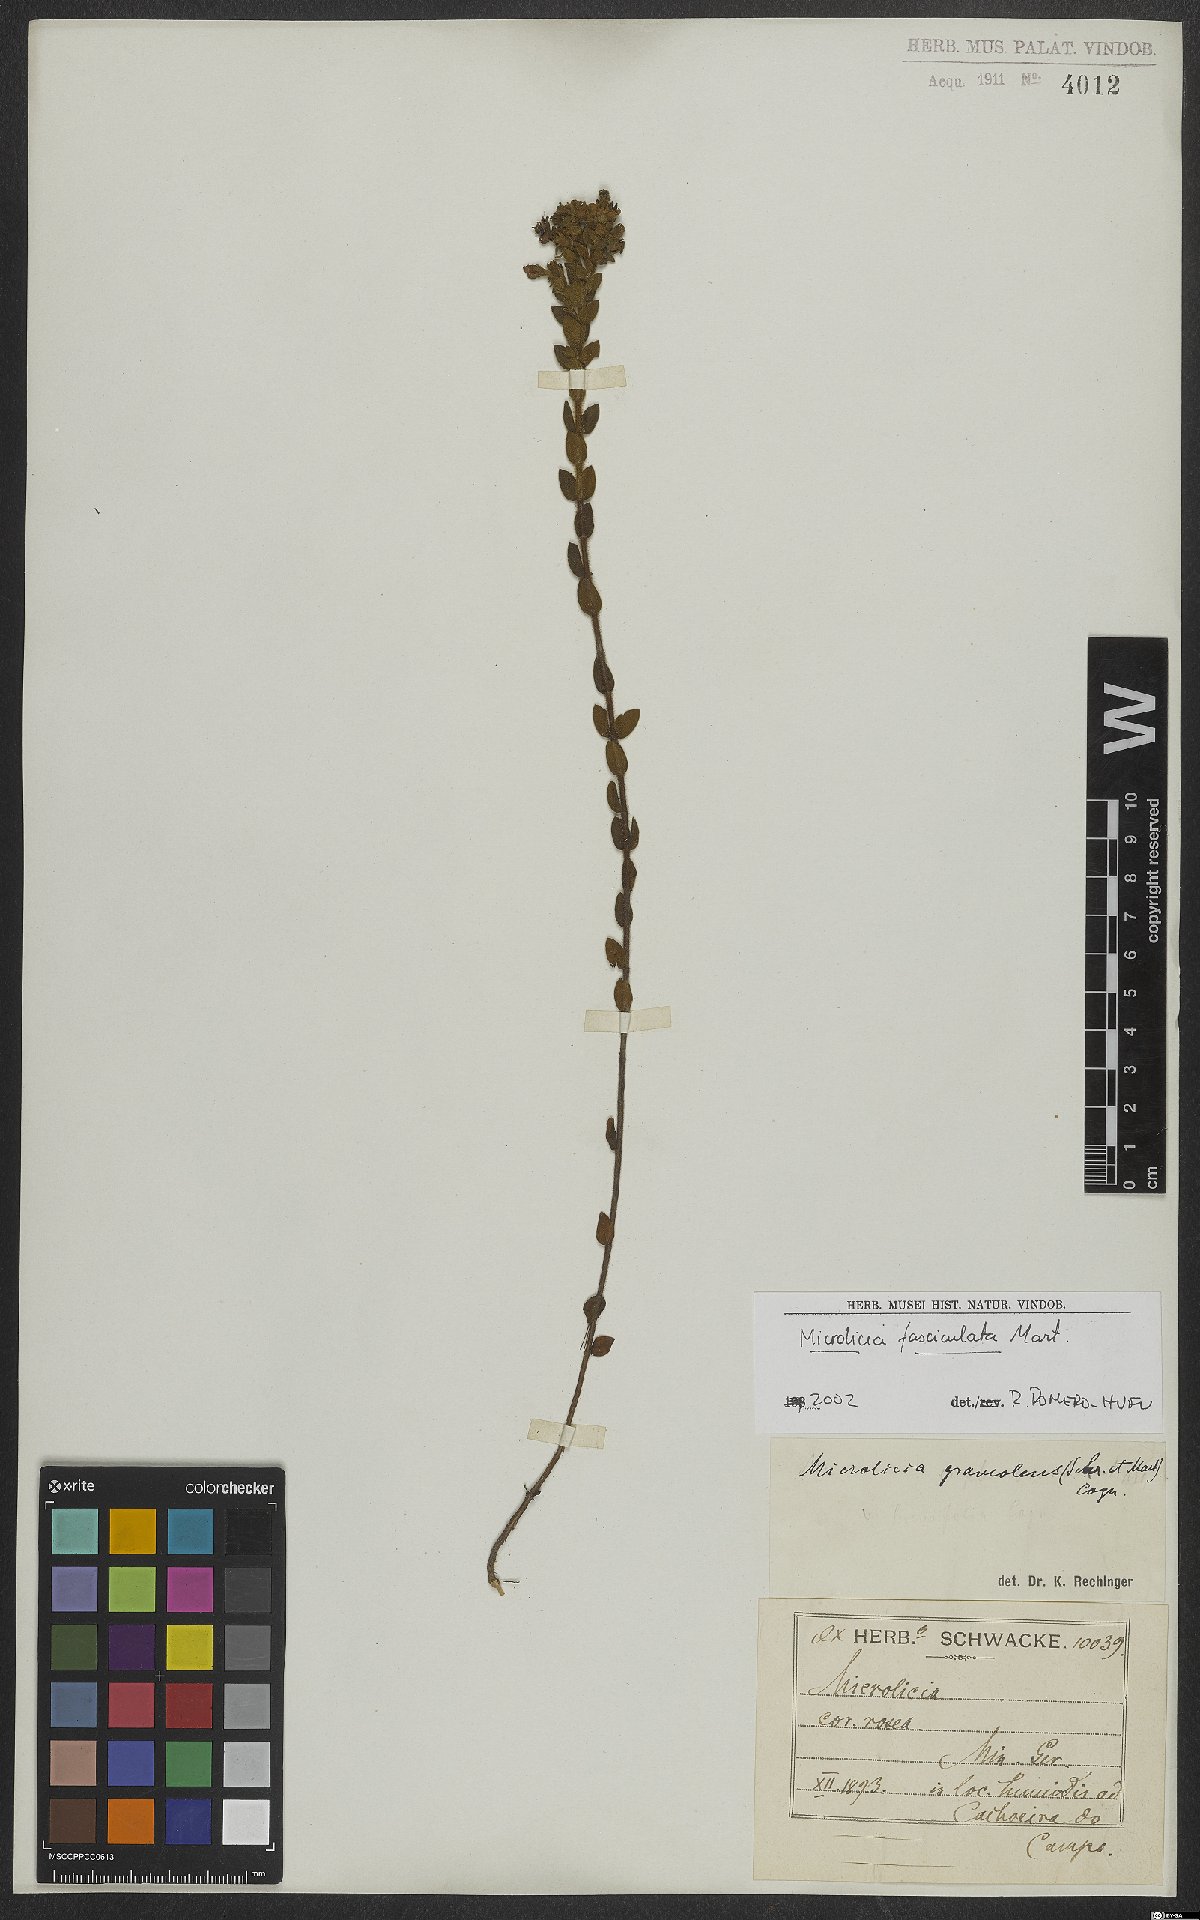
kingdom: Plantae
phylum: Tracheophyta
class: Magnoliopsida
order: Myrtales
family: Melastomataceae
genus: Microlicia
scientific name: Microlicia fasciculata
